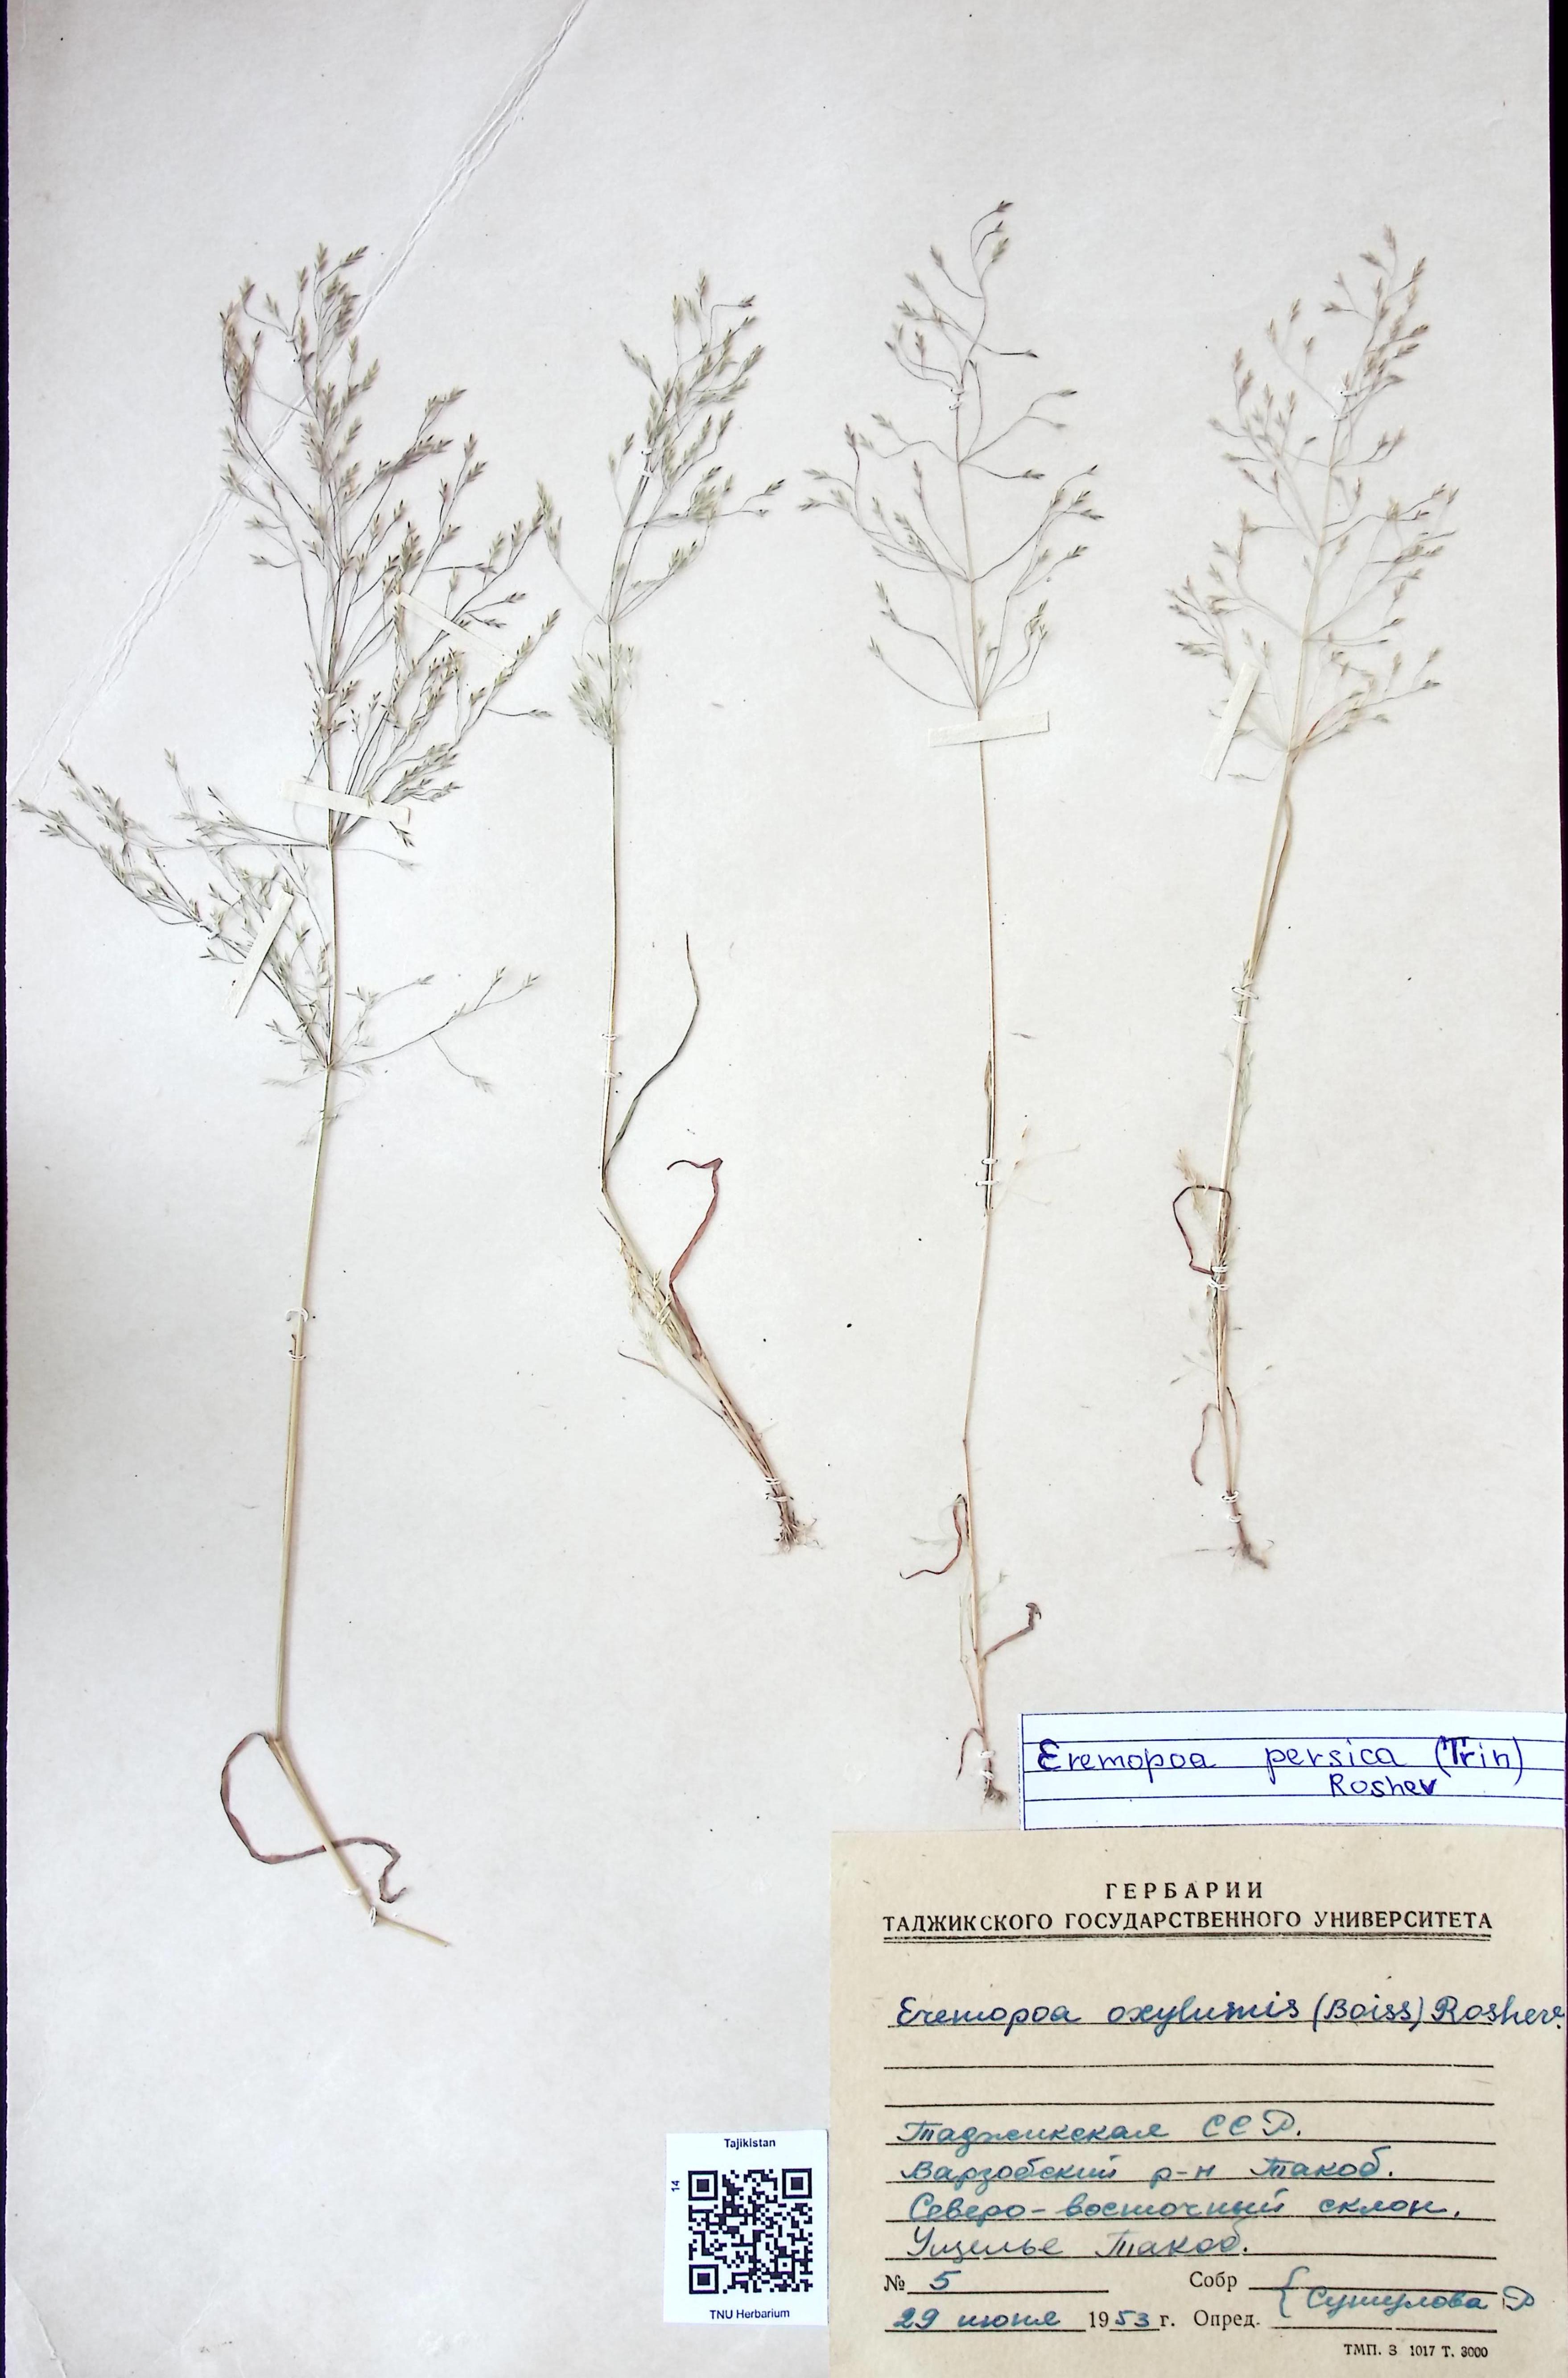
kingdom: Plantae
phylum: Tracheophyta
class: Liliopsida
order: Poales
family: Poaceae
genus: Poa
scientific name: Poa diaphora
